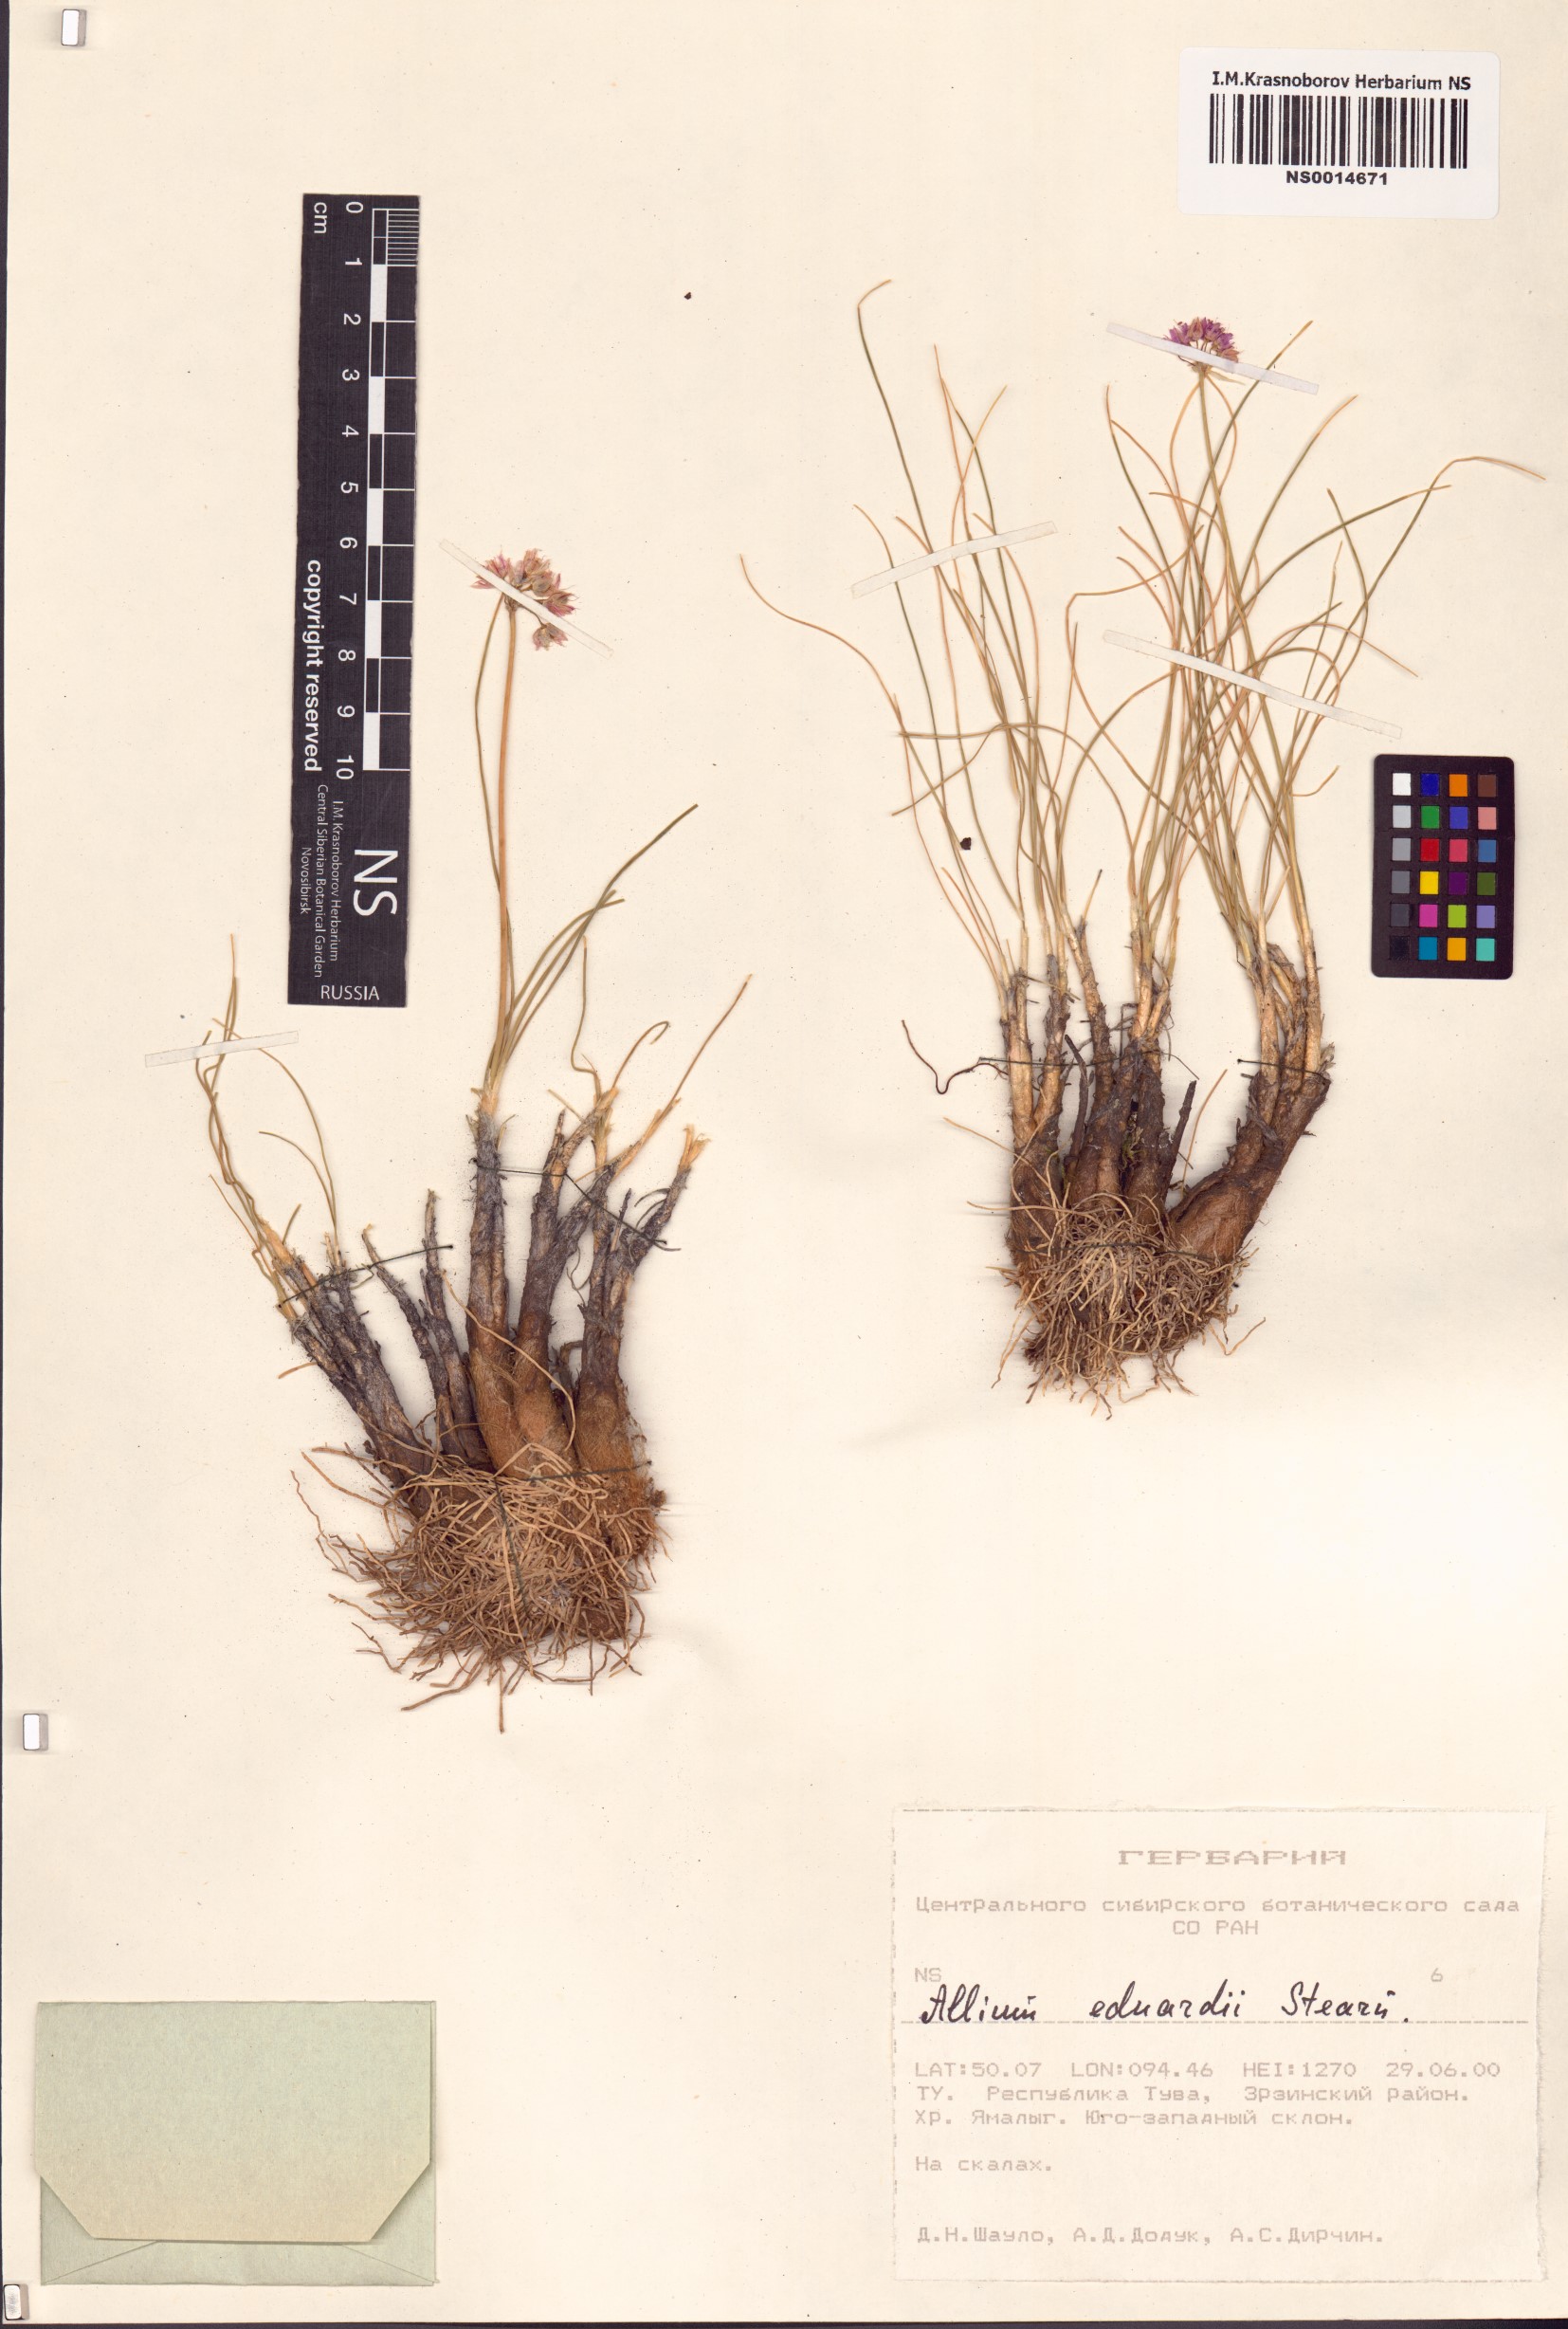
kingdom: Plantae
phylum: Tracheophyta
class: Liliopsida
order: Asparagales
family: Amaryllidaceae
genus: Allium
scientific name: Allium eduardi
